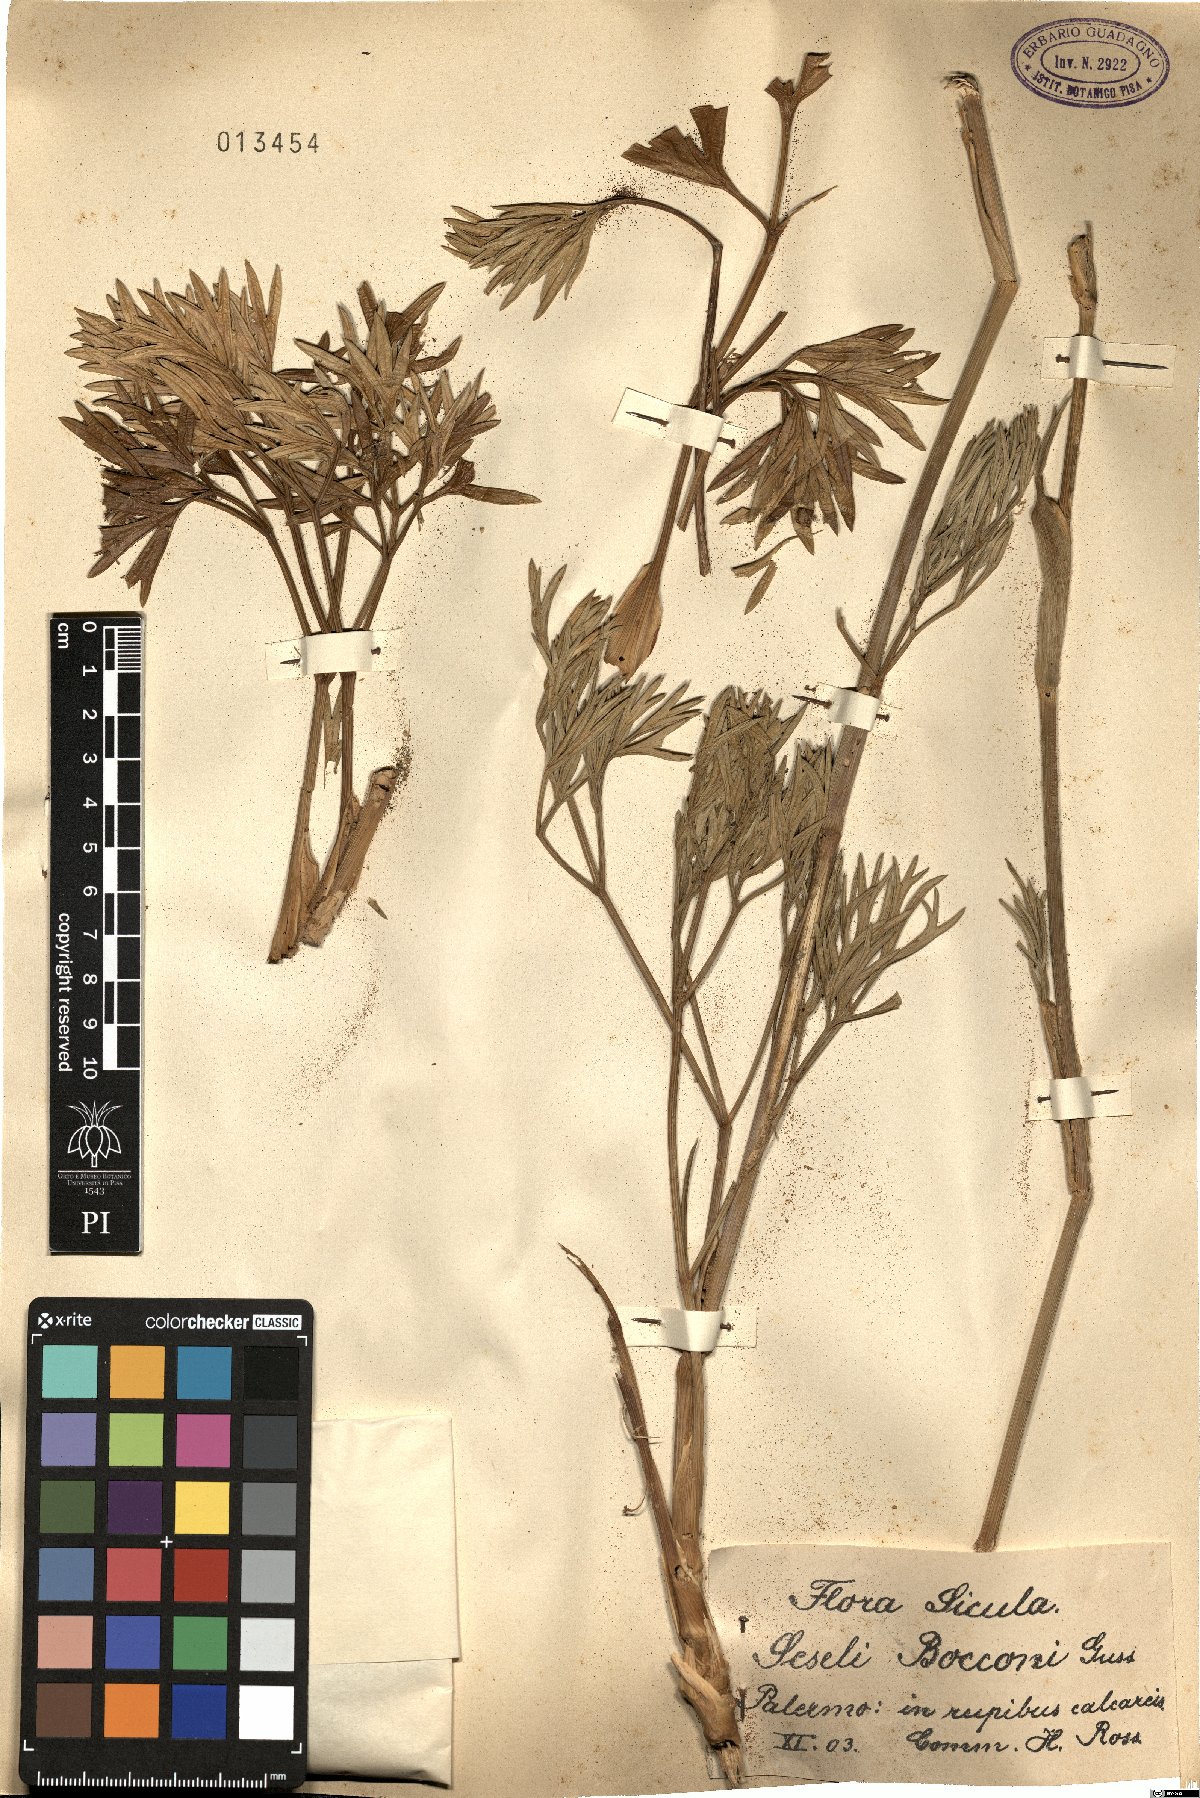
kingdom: Plantae
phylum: Tracheophyta
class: Magnoliopsida
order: Apiales
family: Apiaceae
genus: Seseli
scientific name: Seseli bocconei
